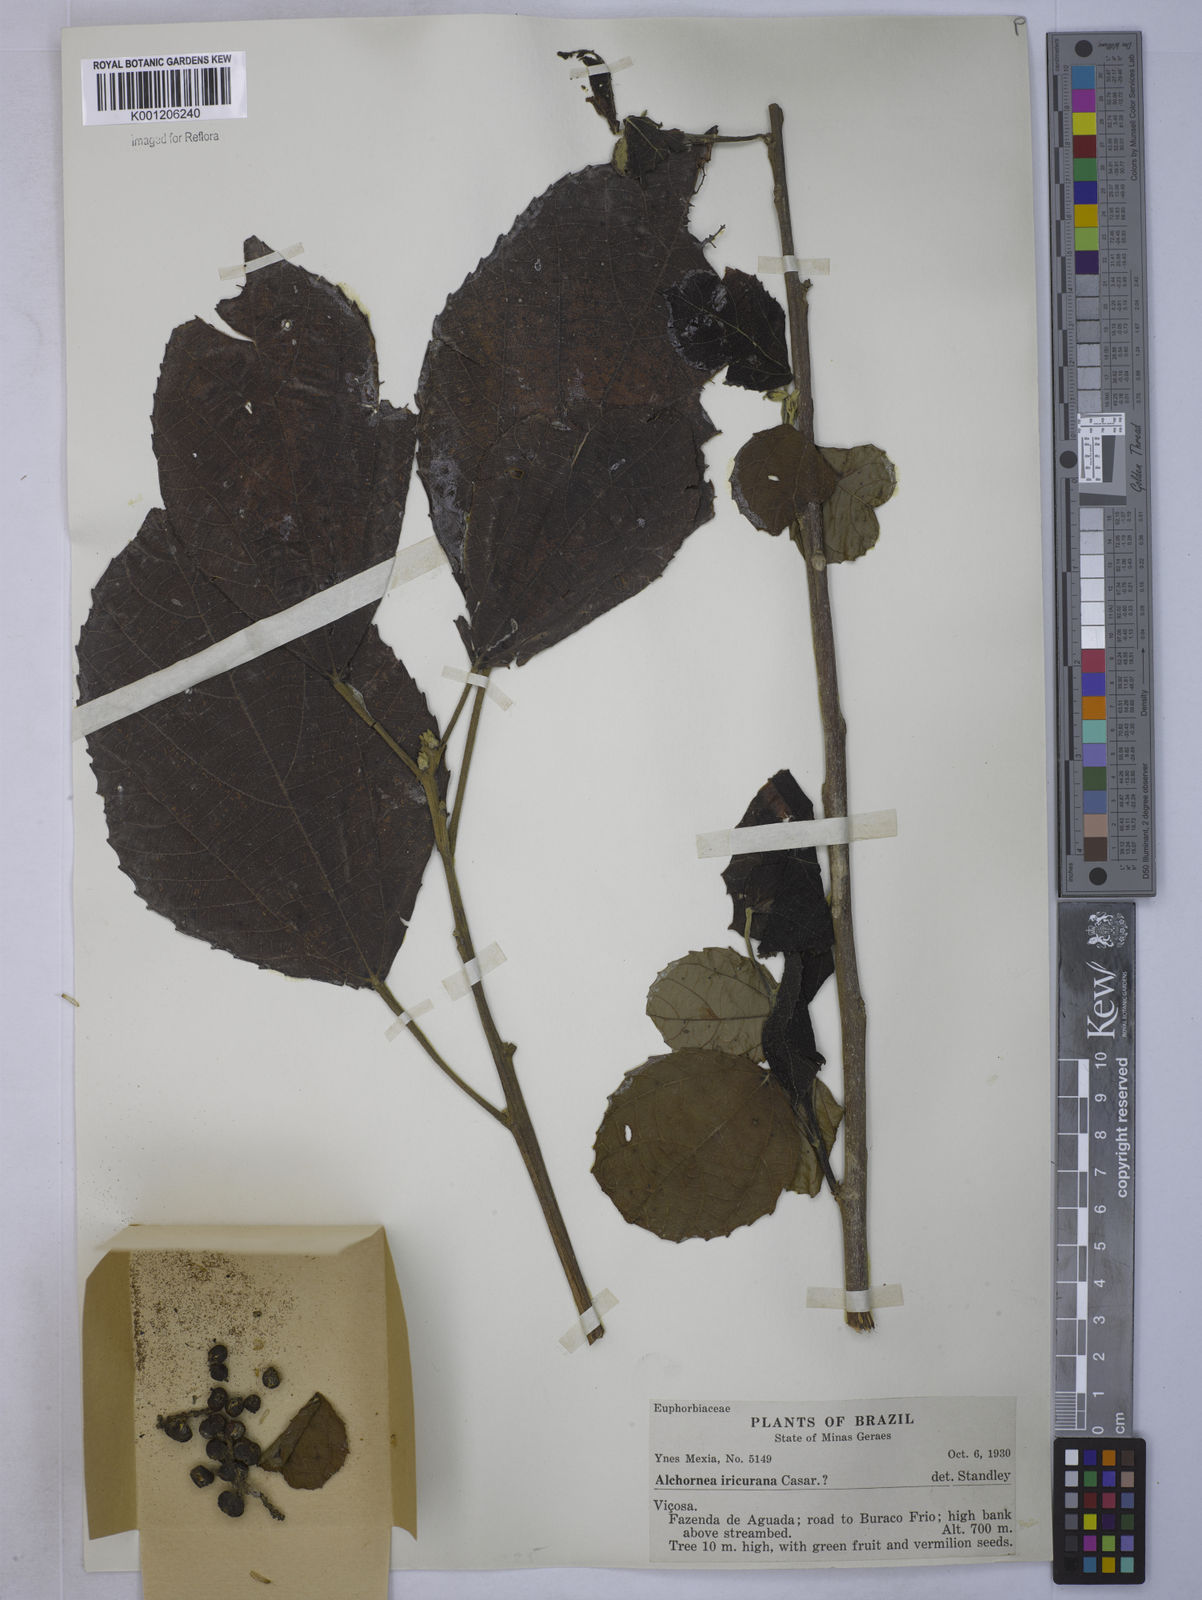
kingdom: Plantae
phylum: Tracheophyta
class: Magnoliopsida
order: Malpighiales
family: Euphorbiaceae
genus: Alchornea
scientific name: Alchornea glandulosa
